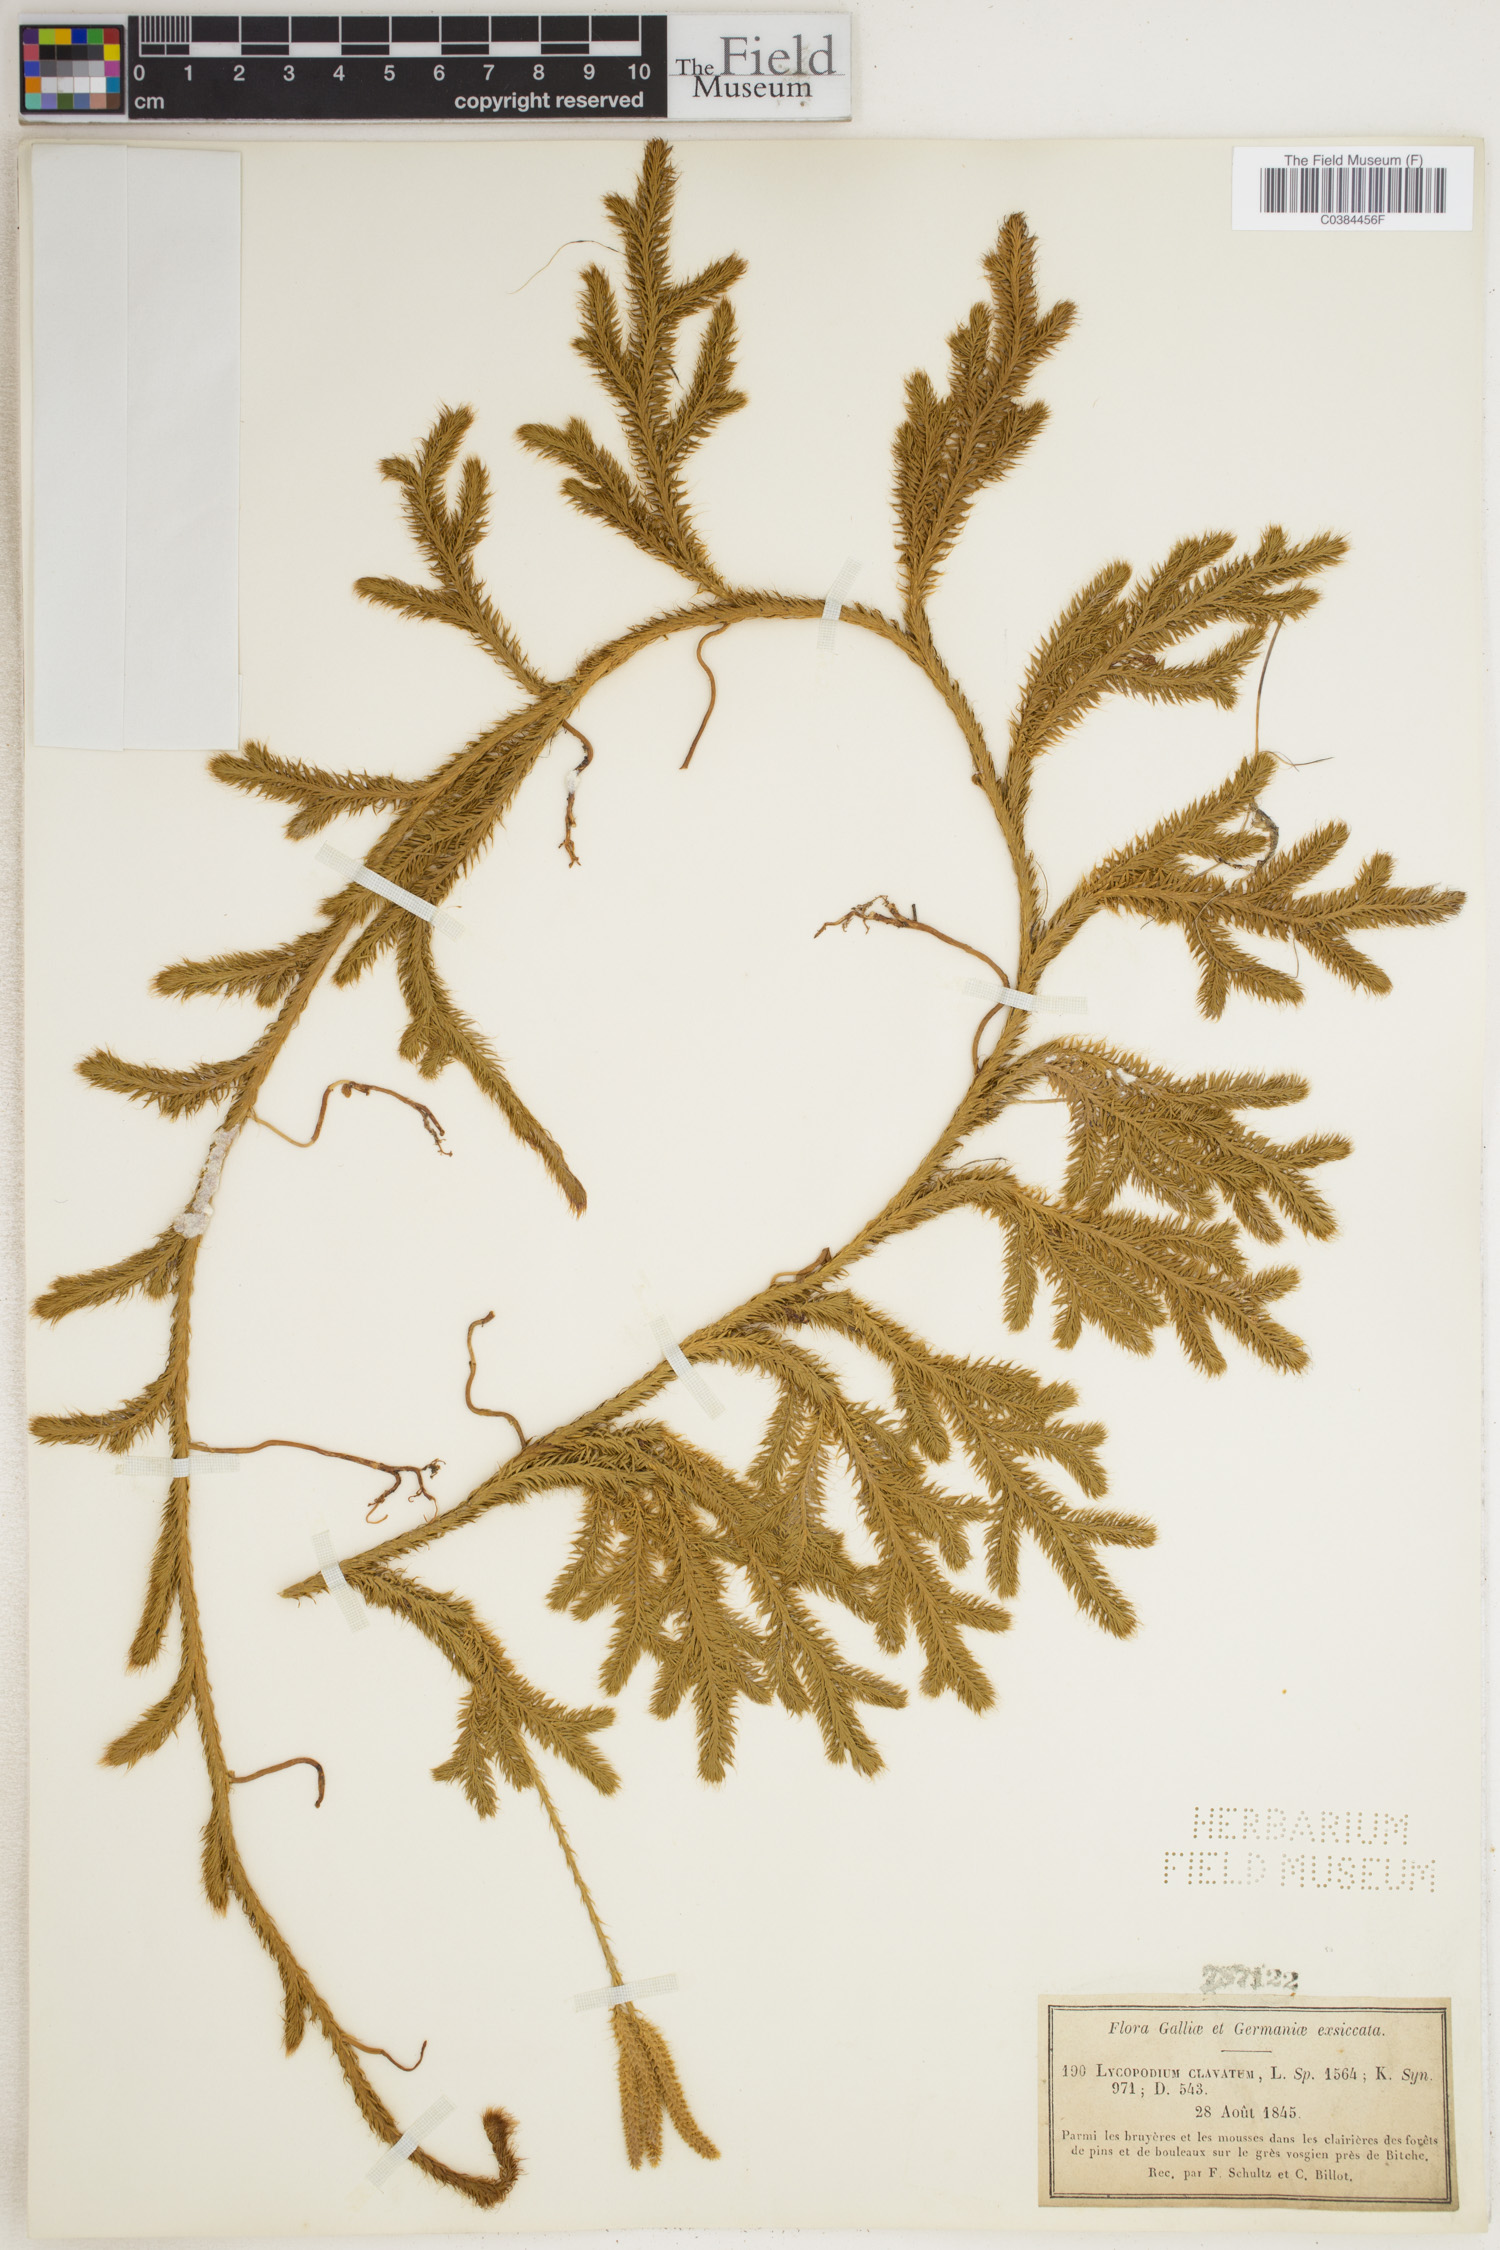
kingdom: Plantae
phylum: Tracheophyta
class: Lycopodiopsida
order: Lycopodiales
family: Lycopodiaceae
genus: Lycopodium
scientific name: Lycopodium clavatum
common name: Stag's-horn clubmoss
